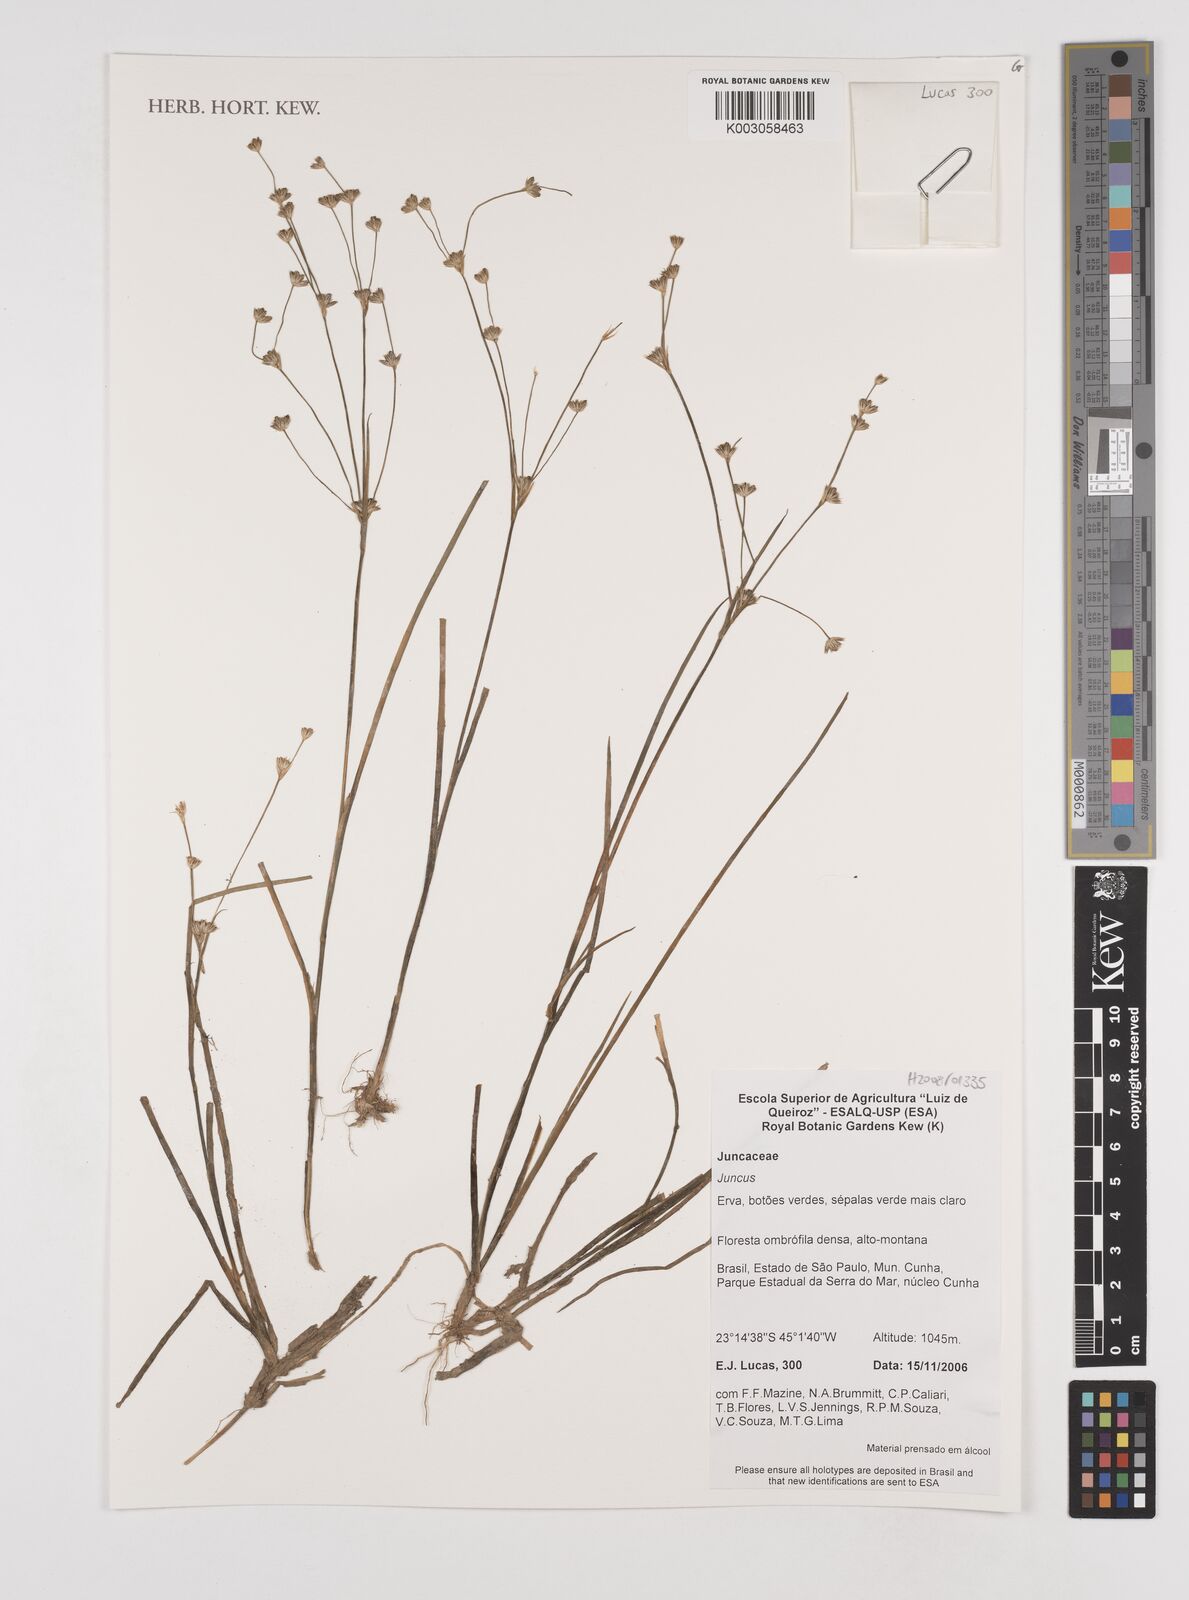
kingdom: Plantae
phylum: Tracheophyta
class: Liliopsida
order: Poales
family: Juncaceae
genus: Juncus
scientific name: Juncus
